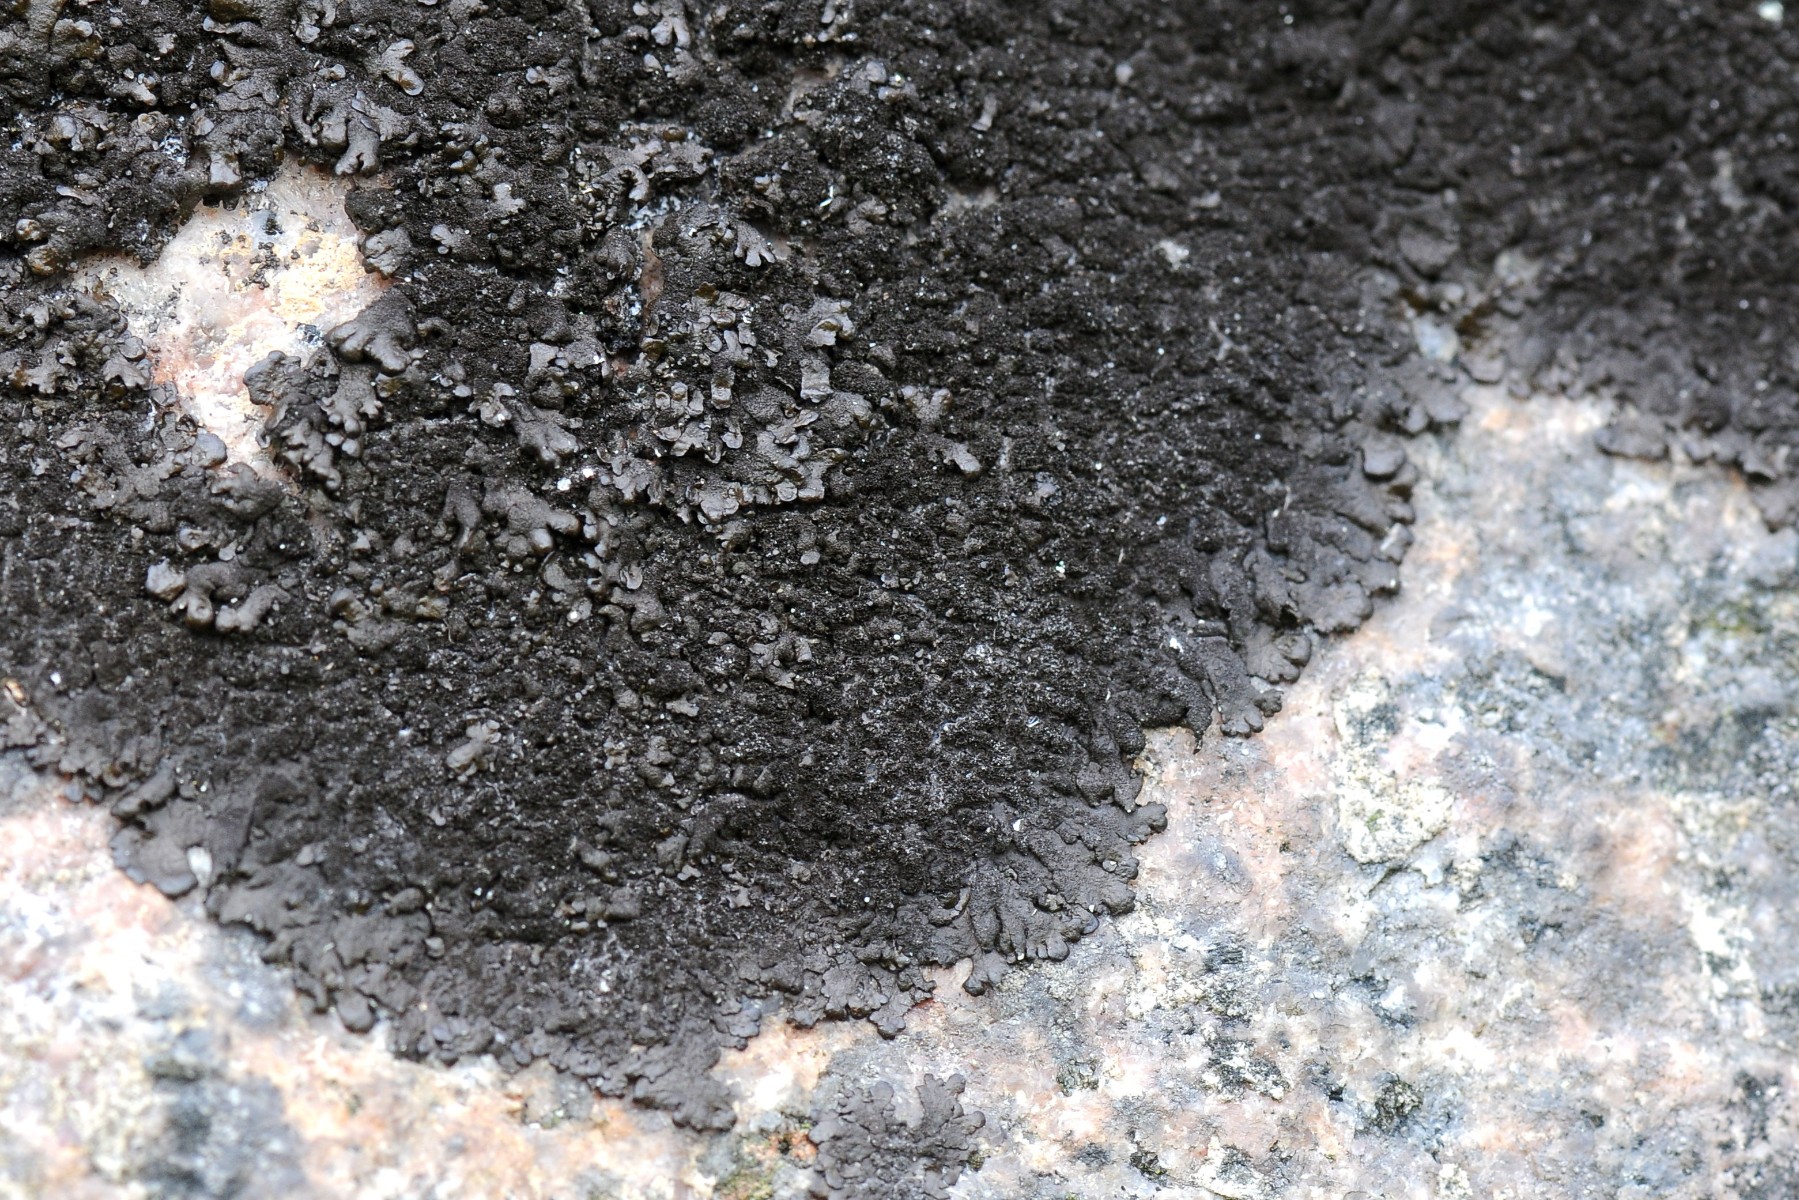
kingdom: Fungi
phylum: Ascomycota
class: Lecanoromycetes
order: Lecanorales
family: Parmeliaceae
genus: Melanelixia
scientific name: Melanelixia fuliginosa
